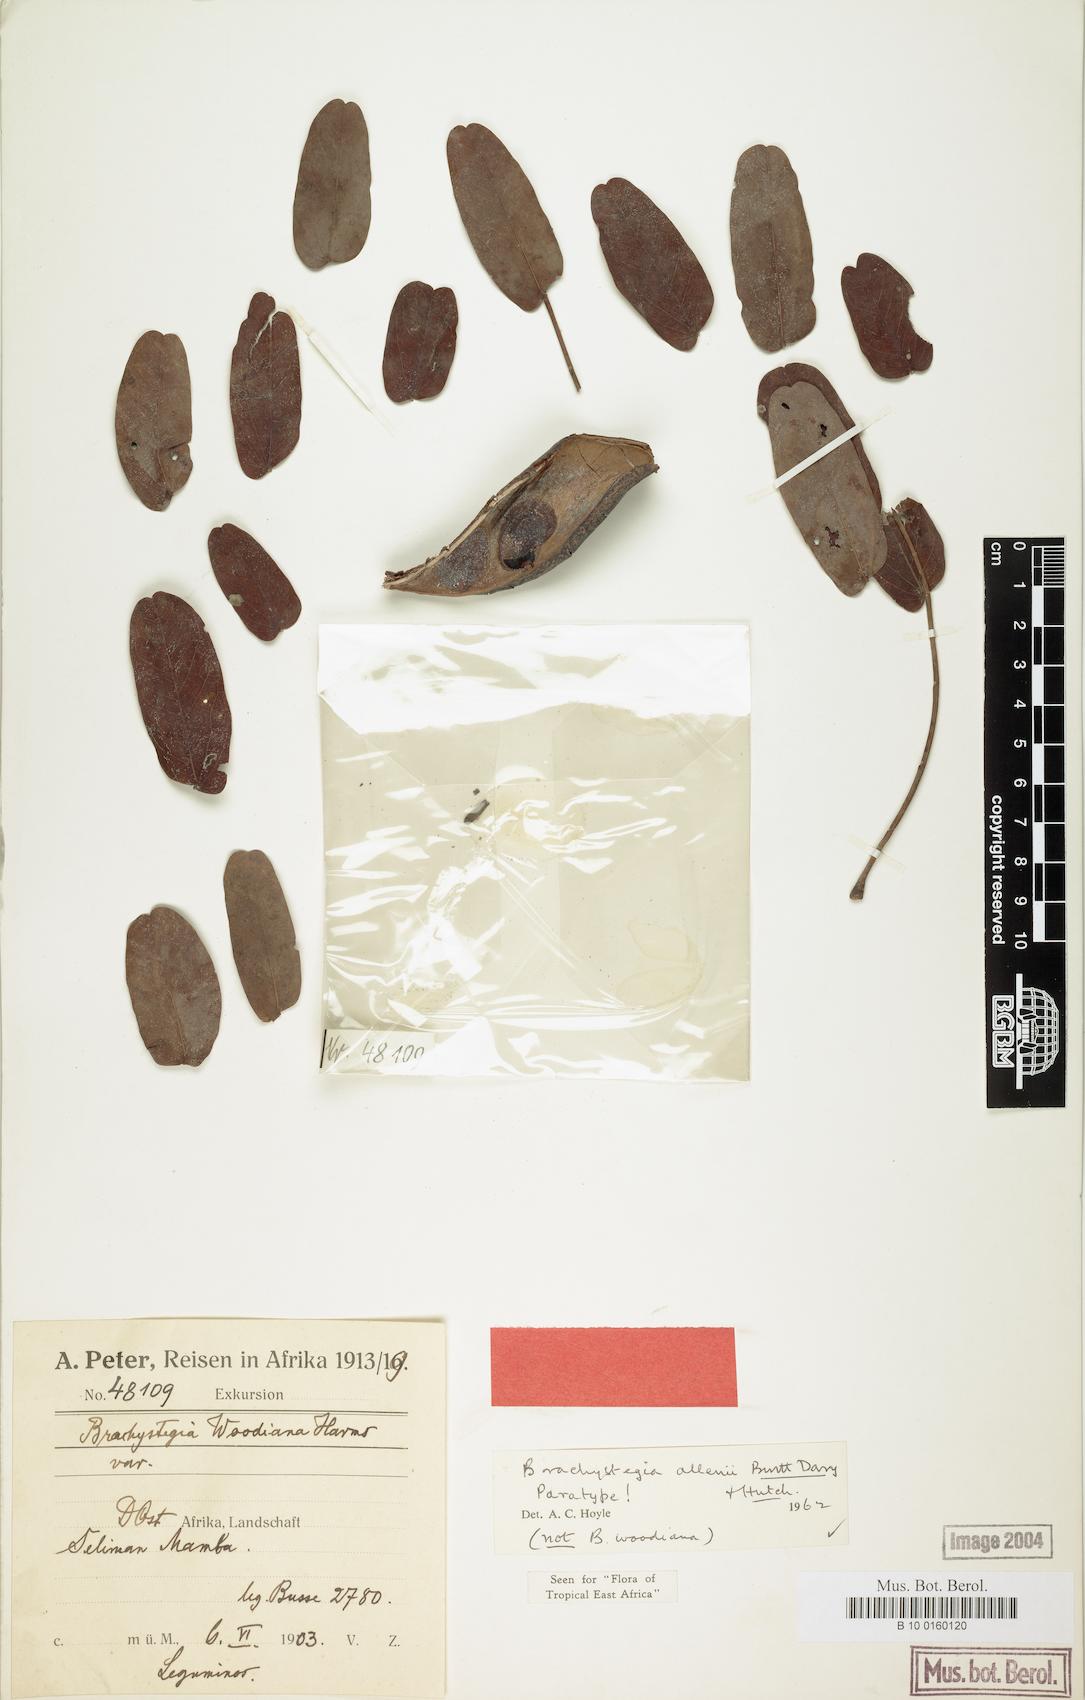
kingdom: Plantae
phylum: Tracheophyta
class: Magnoliopsida
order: Fabales
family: Fabaceae
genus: Brachystegia
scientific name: Brachystegia allenii
